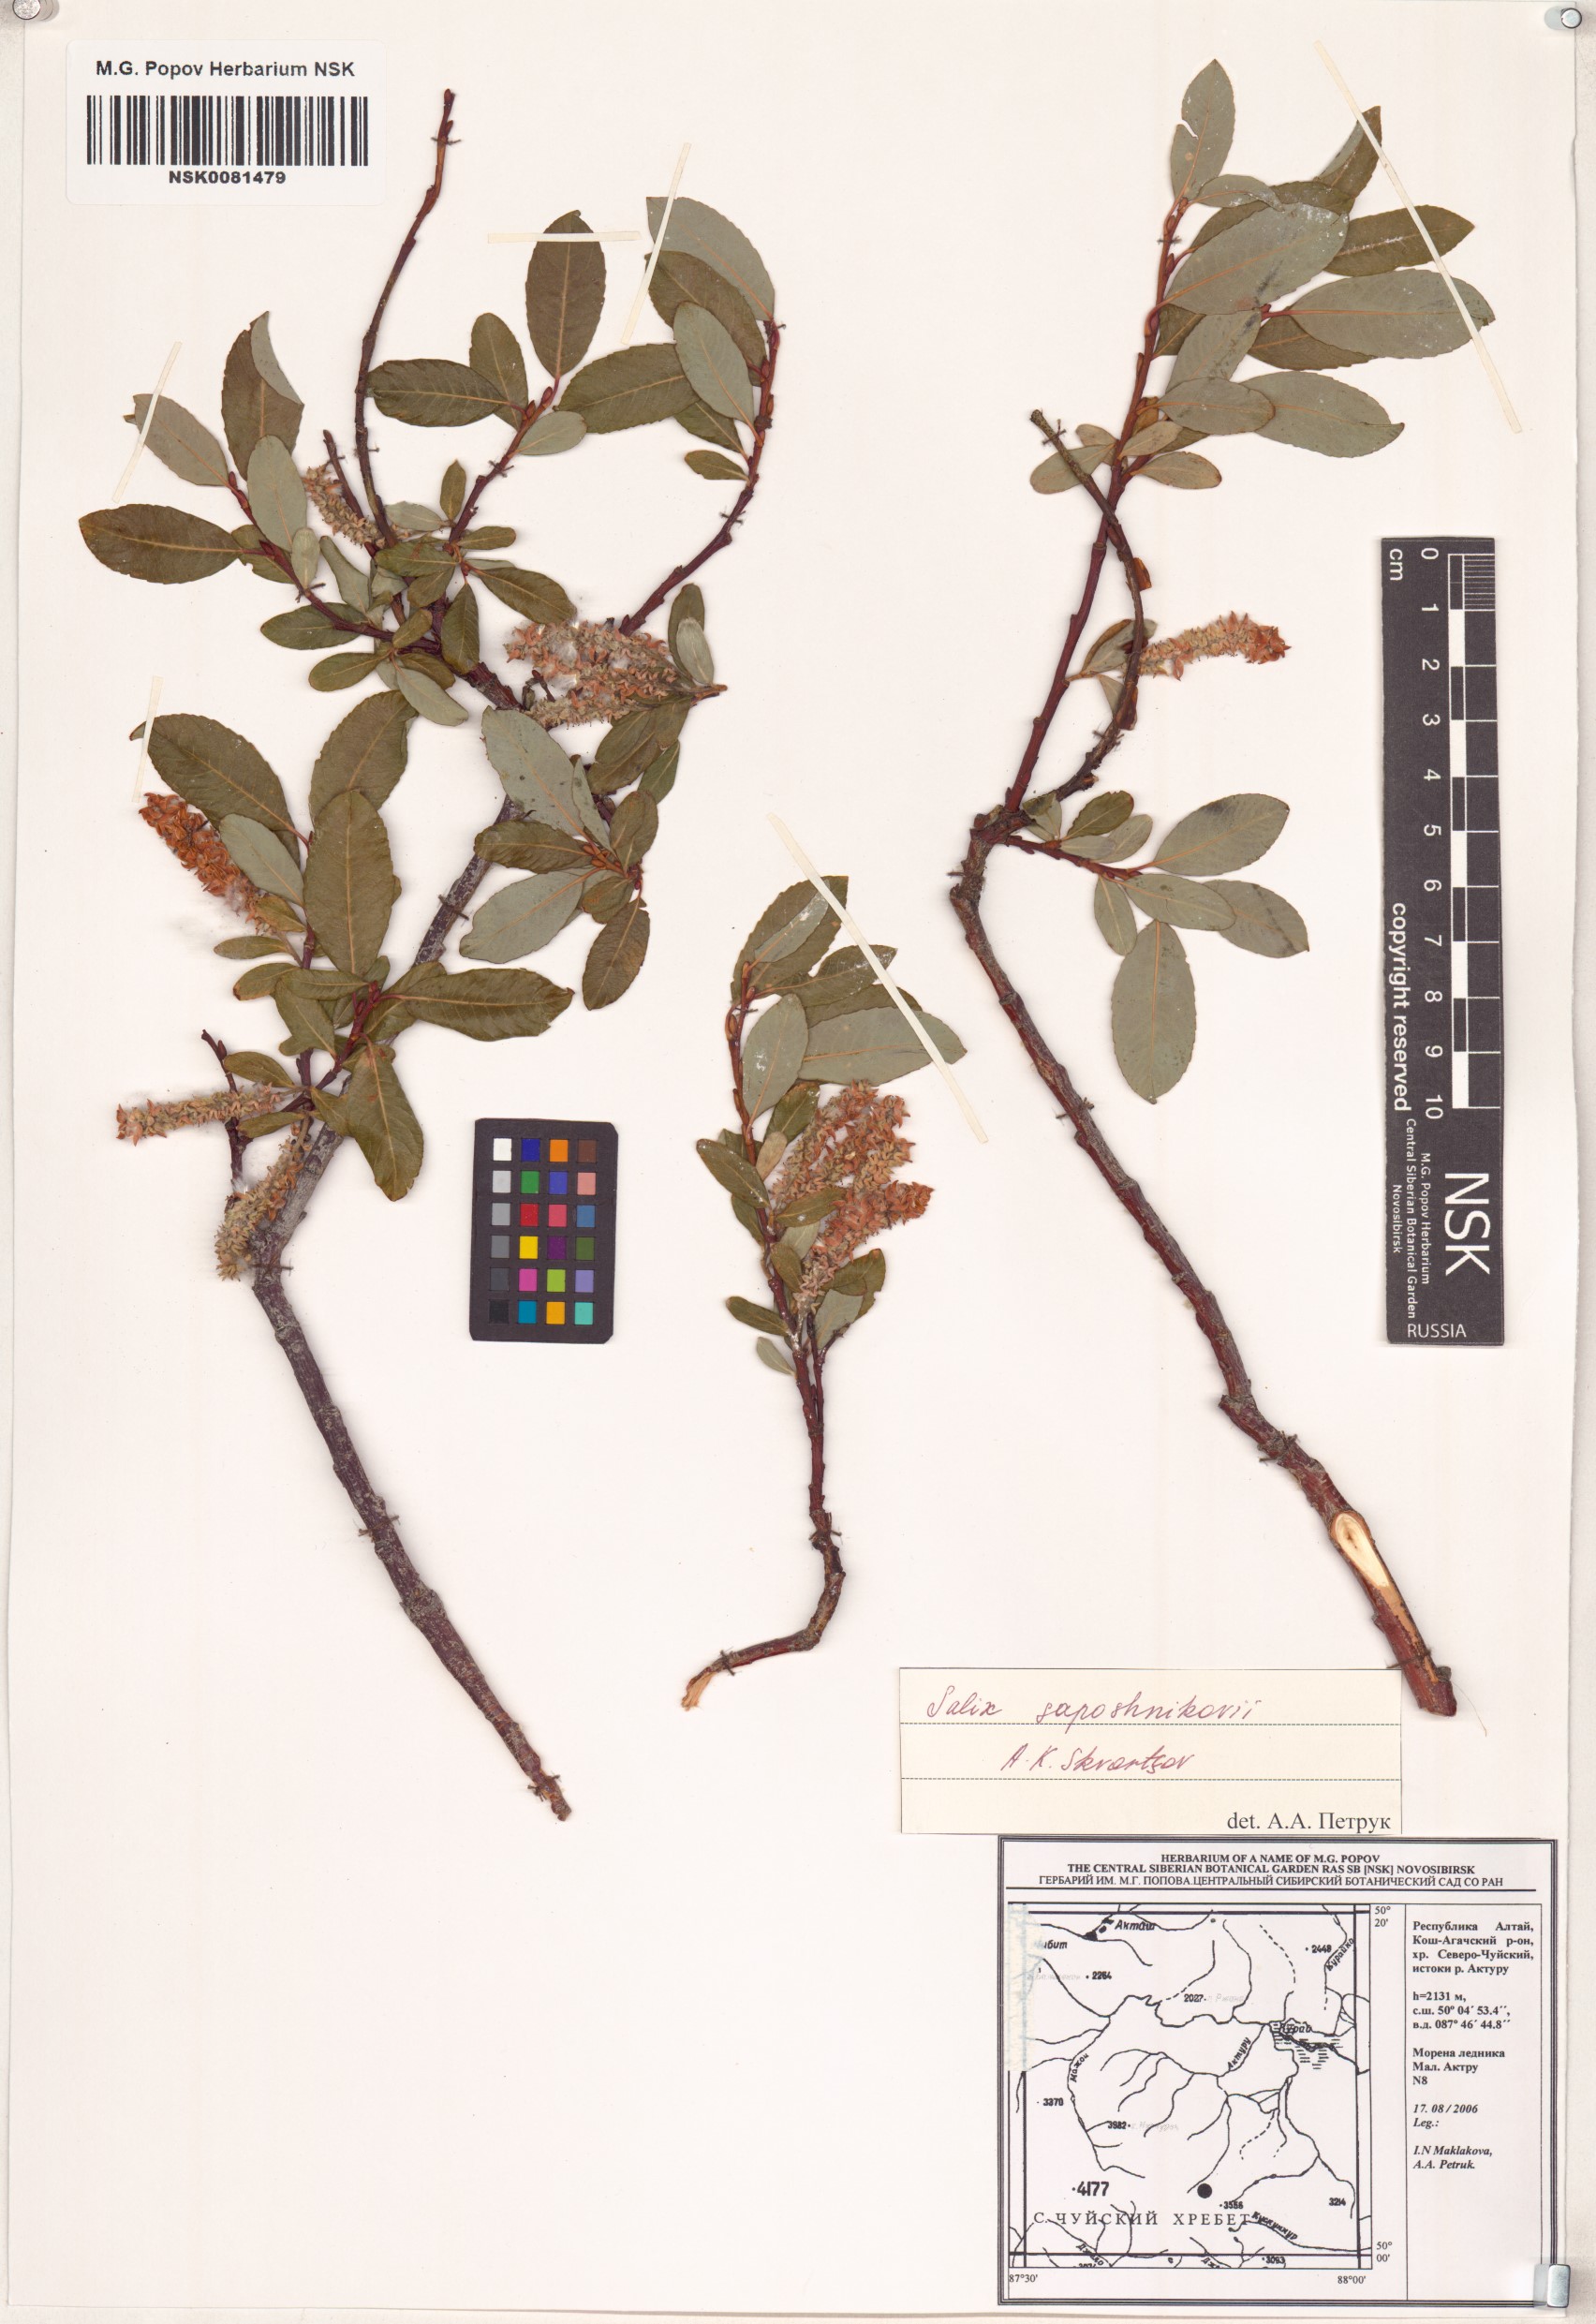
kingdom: Plantae
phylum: Tracheophyta
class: Magnoliopsida
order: Malpighiales
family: Salicaceae
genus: Salix
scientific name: Salix saposhnikovii
